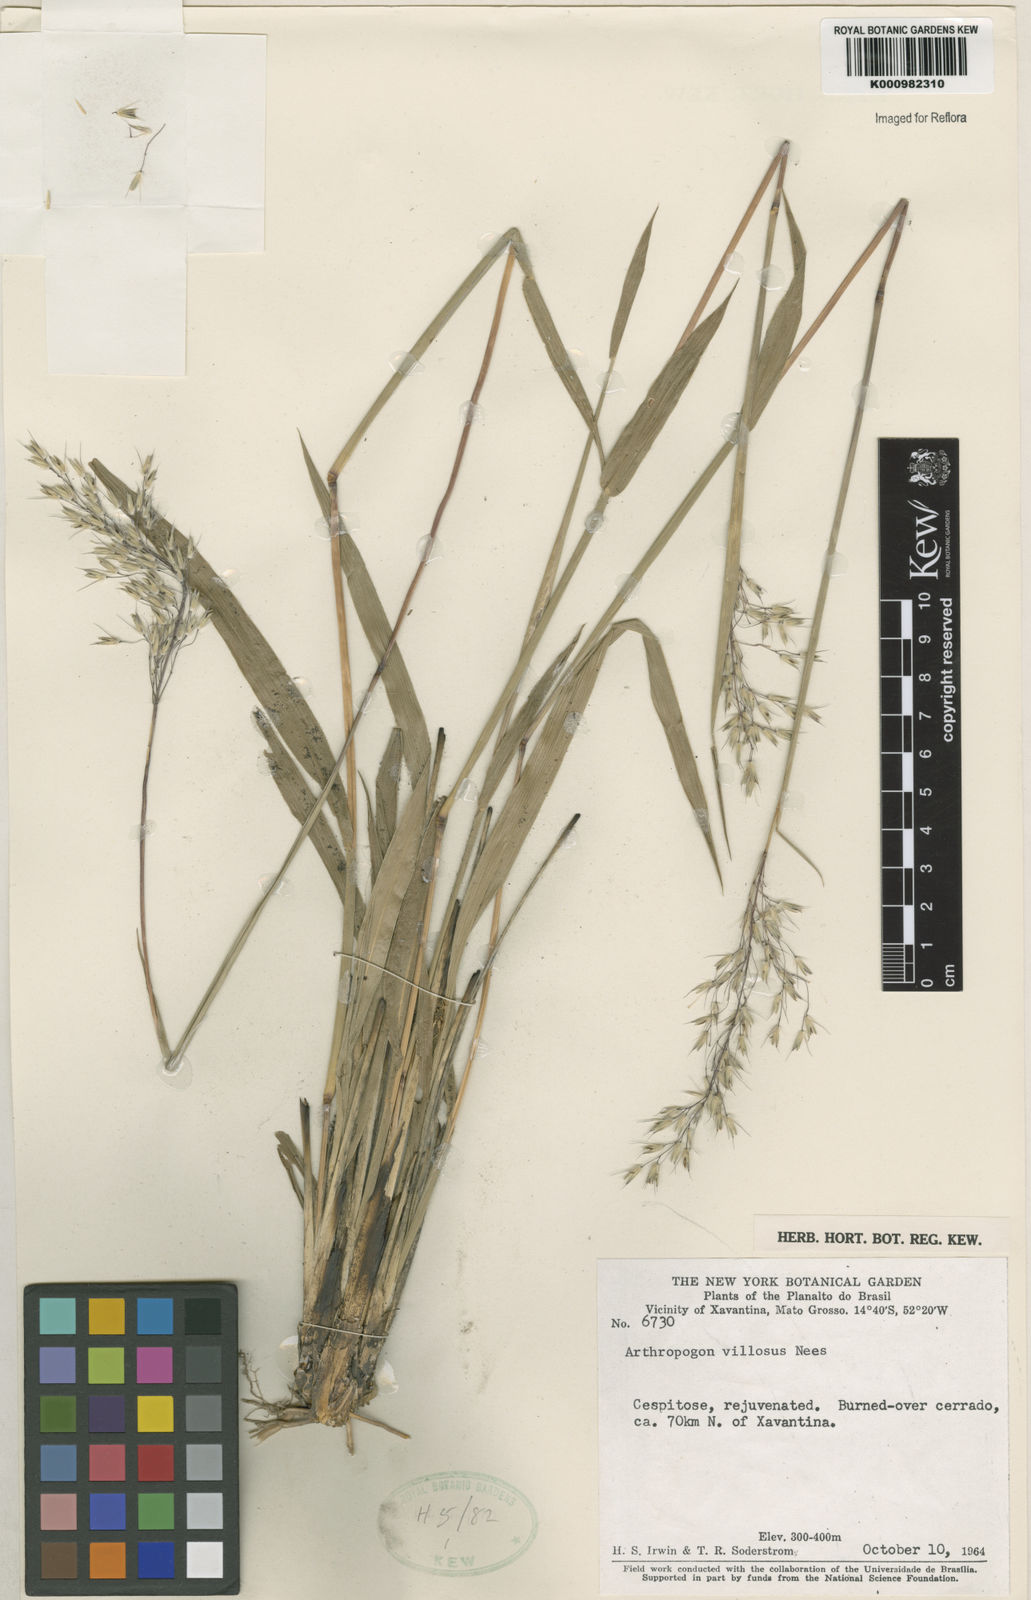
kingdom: Plantae
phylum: Tracheophyta
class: Liliopsida
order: Poales
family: Poaceae
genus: Arthropogon
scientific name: Arthropogon villosus
